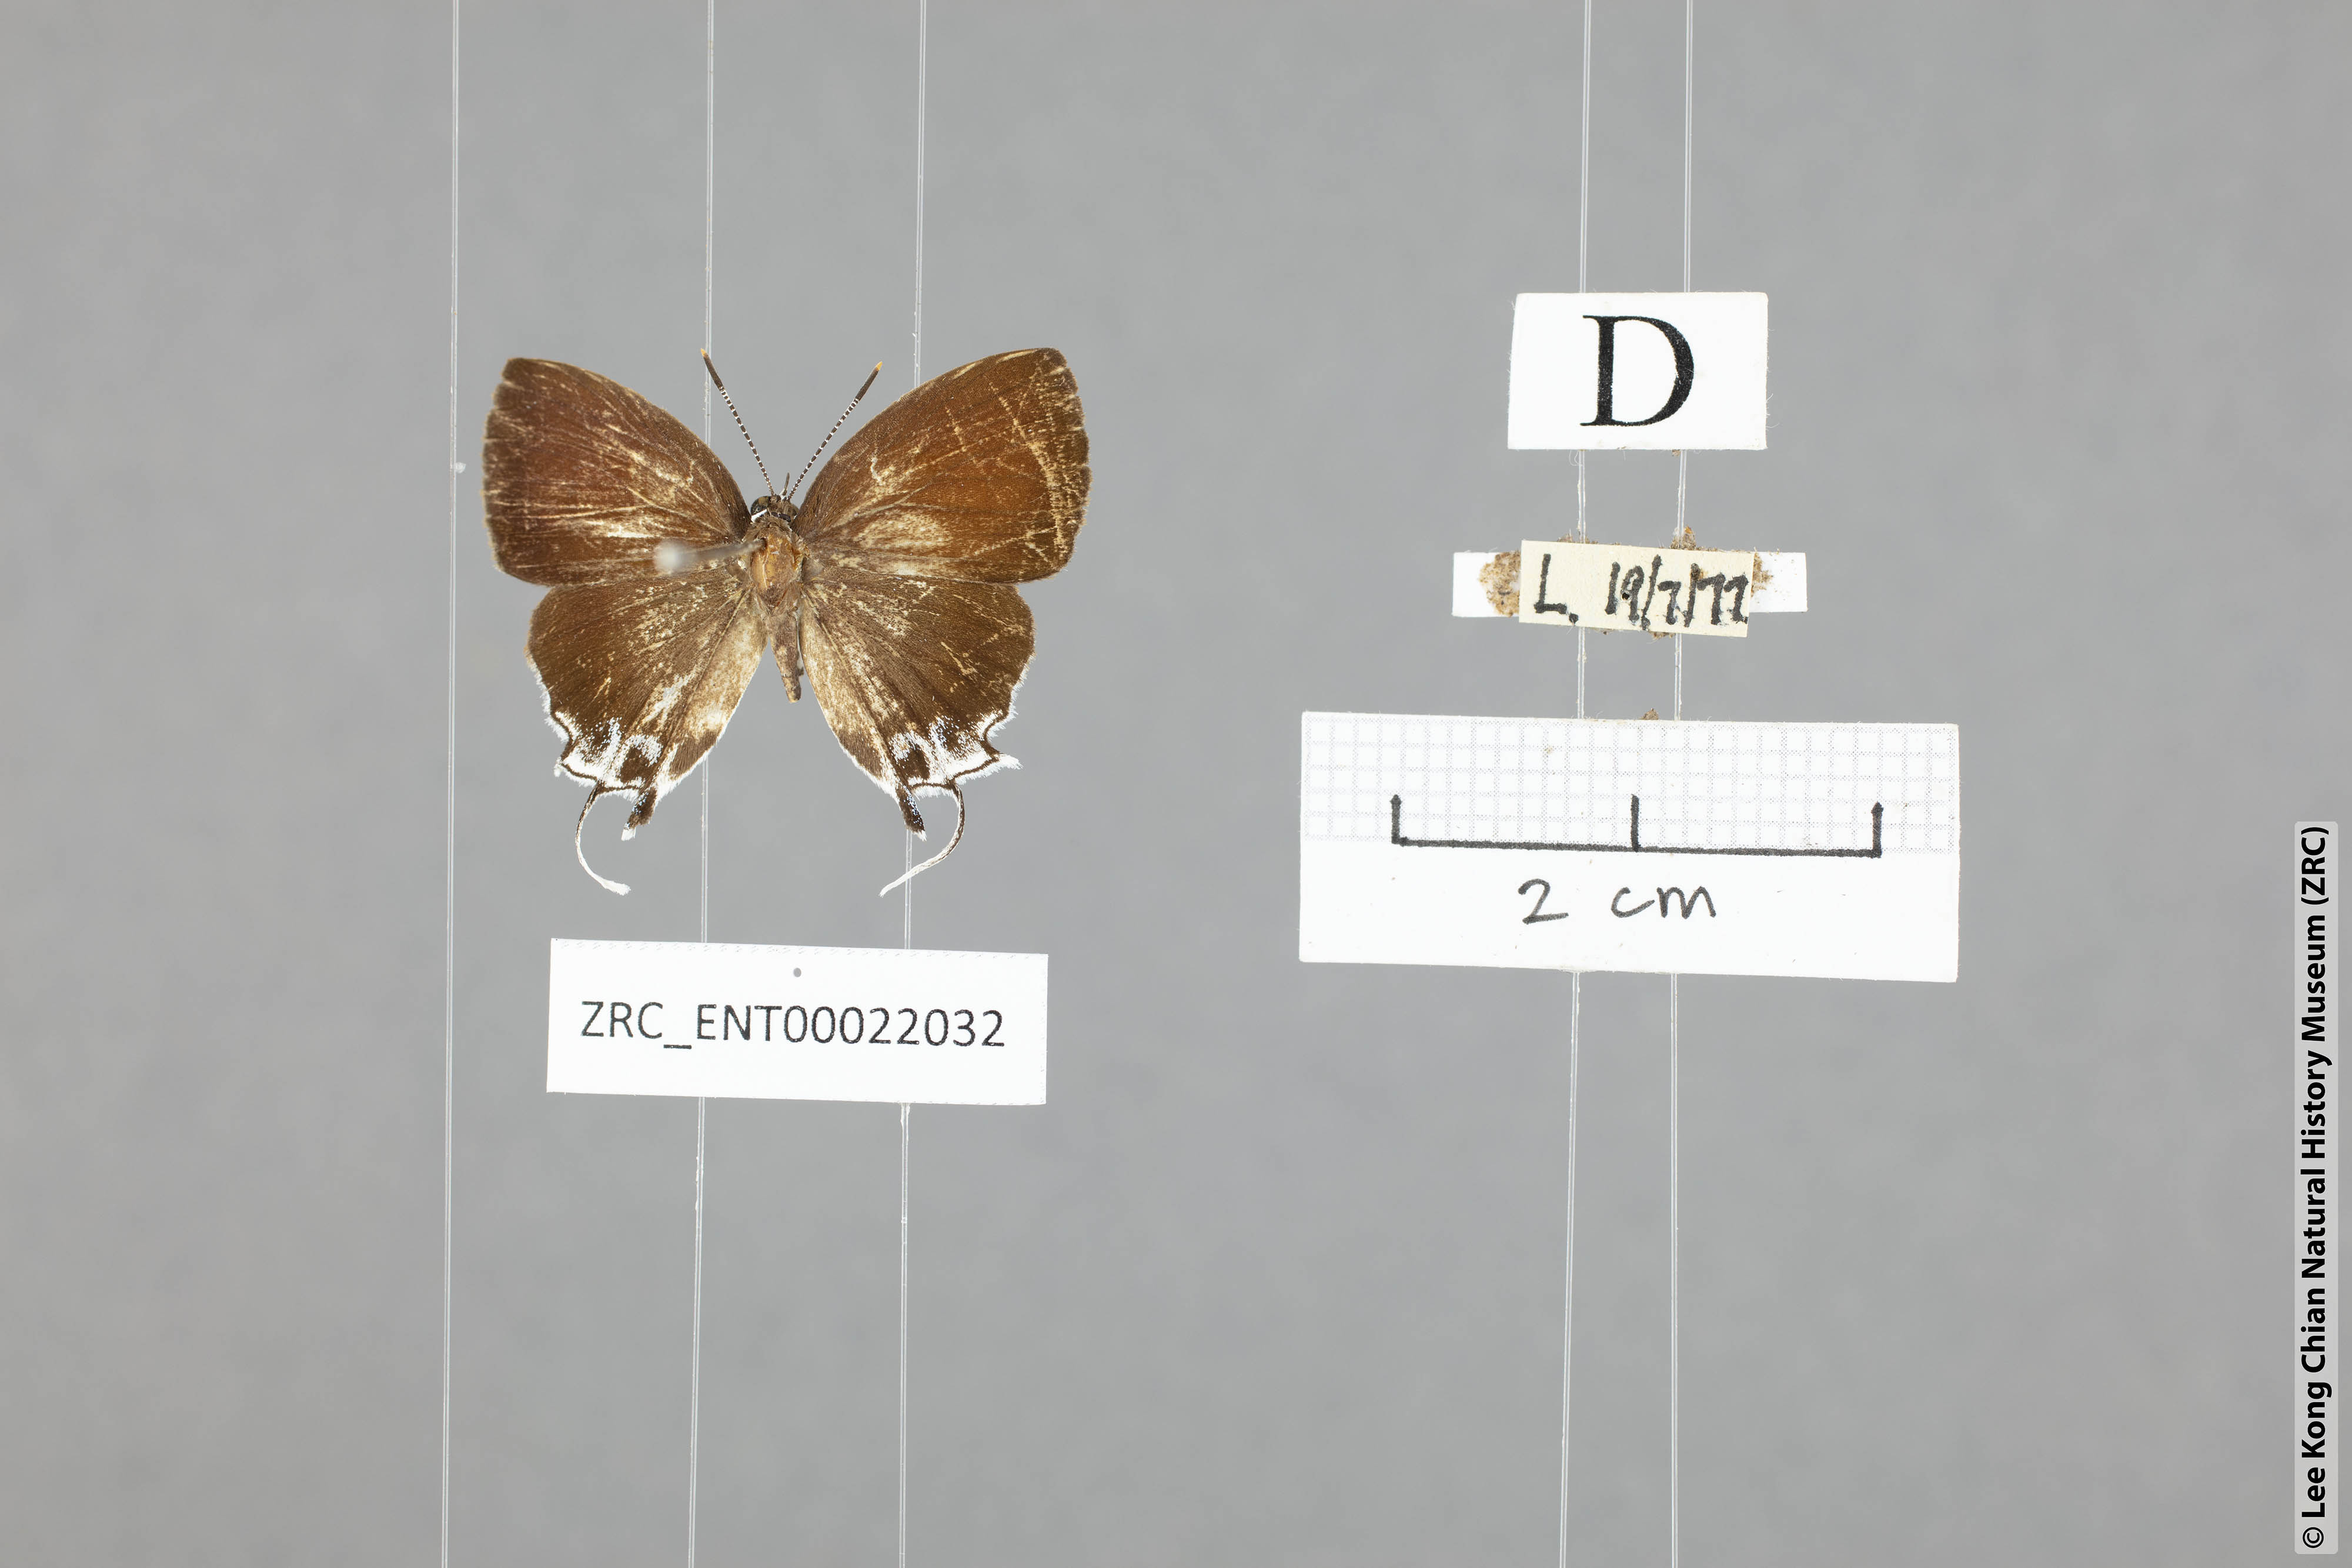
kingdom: Animalia
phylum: Arthropoda
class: Insecta
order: Lepidoptera
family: Lycaenidae
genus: Sithon
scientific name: Sithon nedymond
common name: Plush
